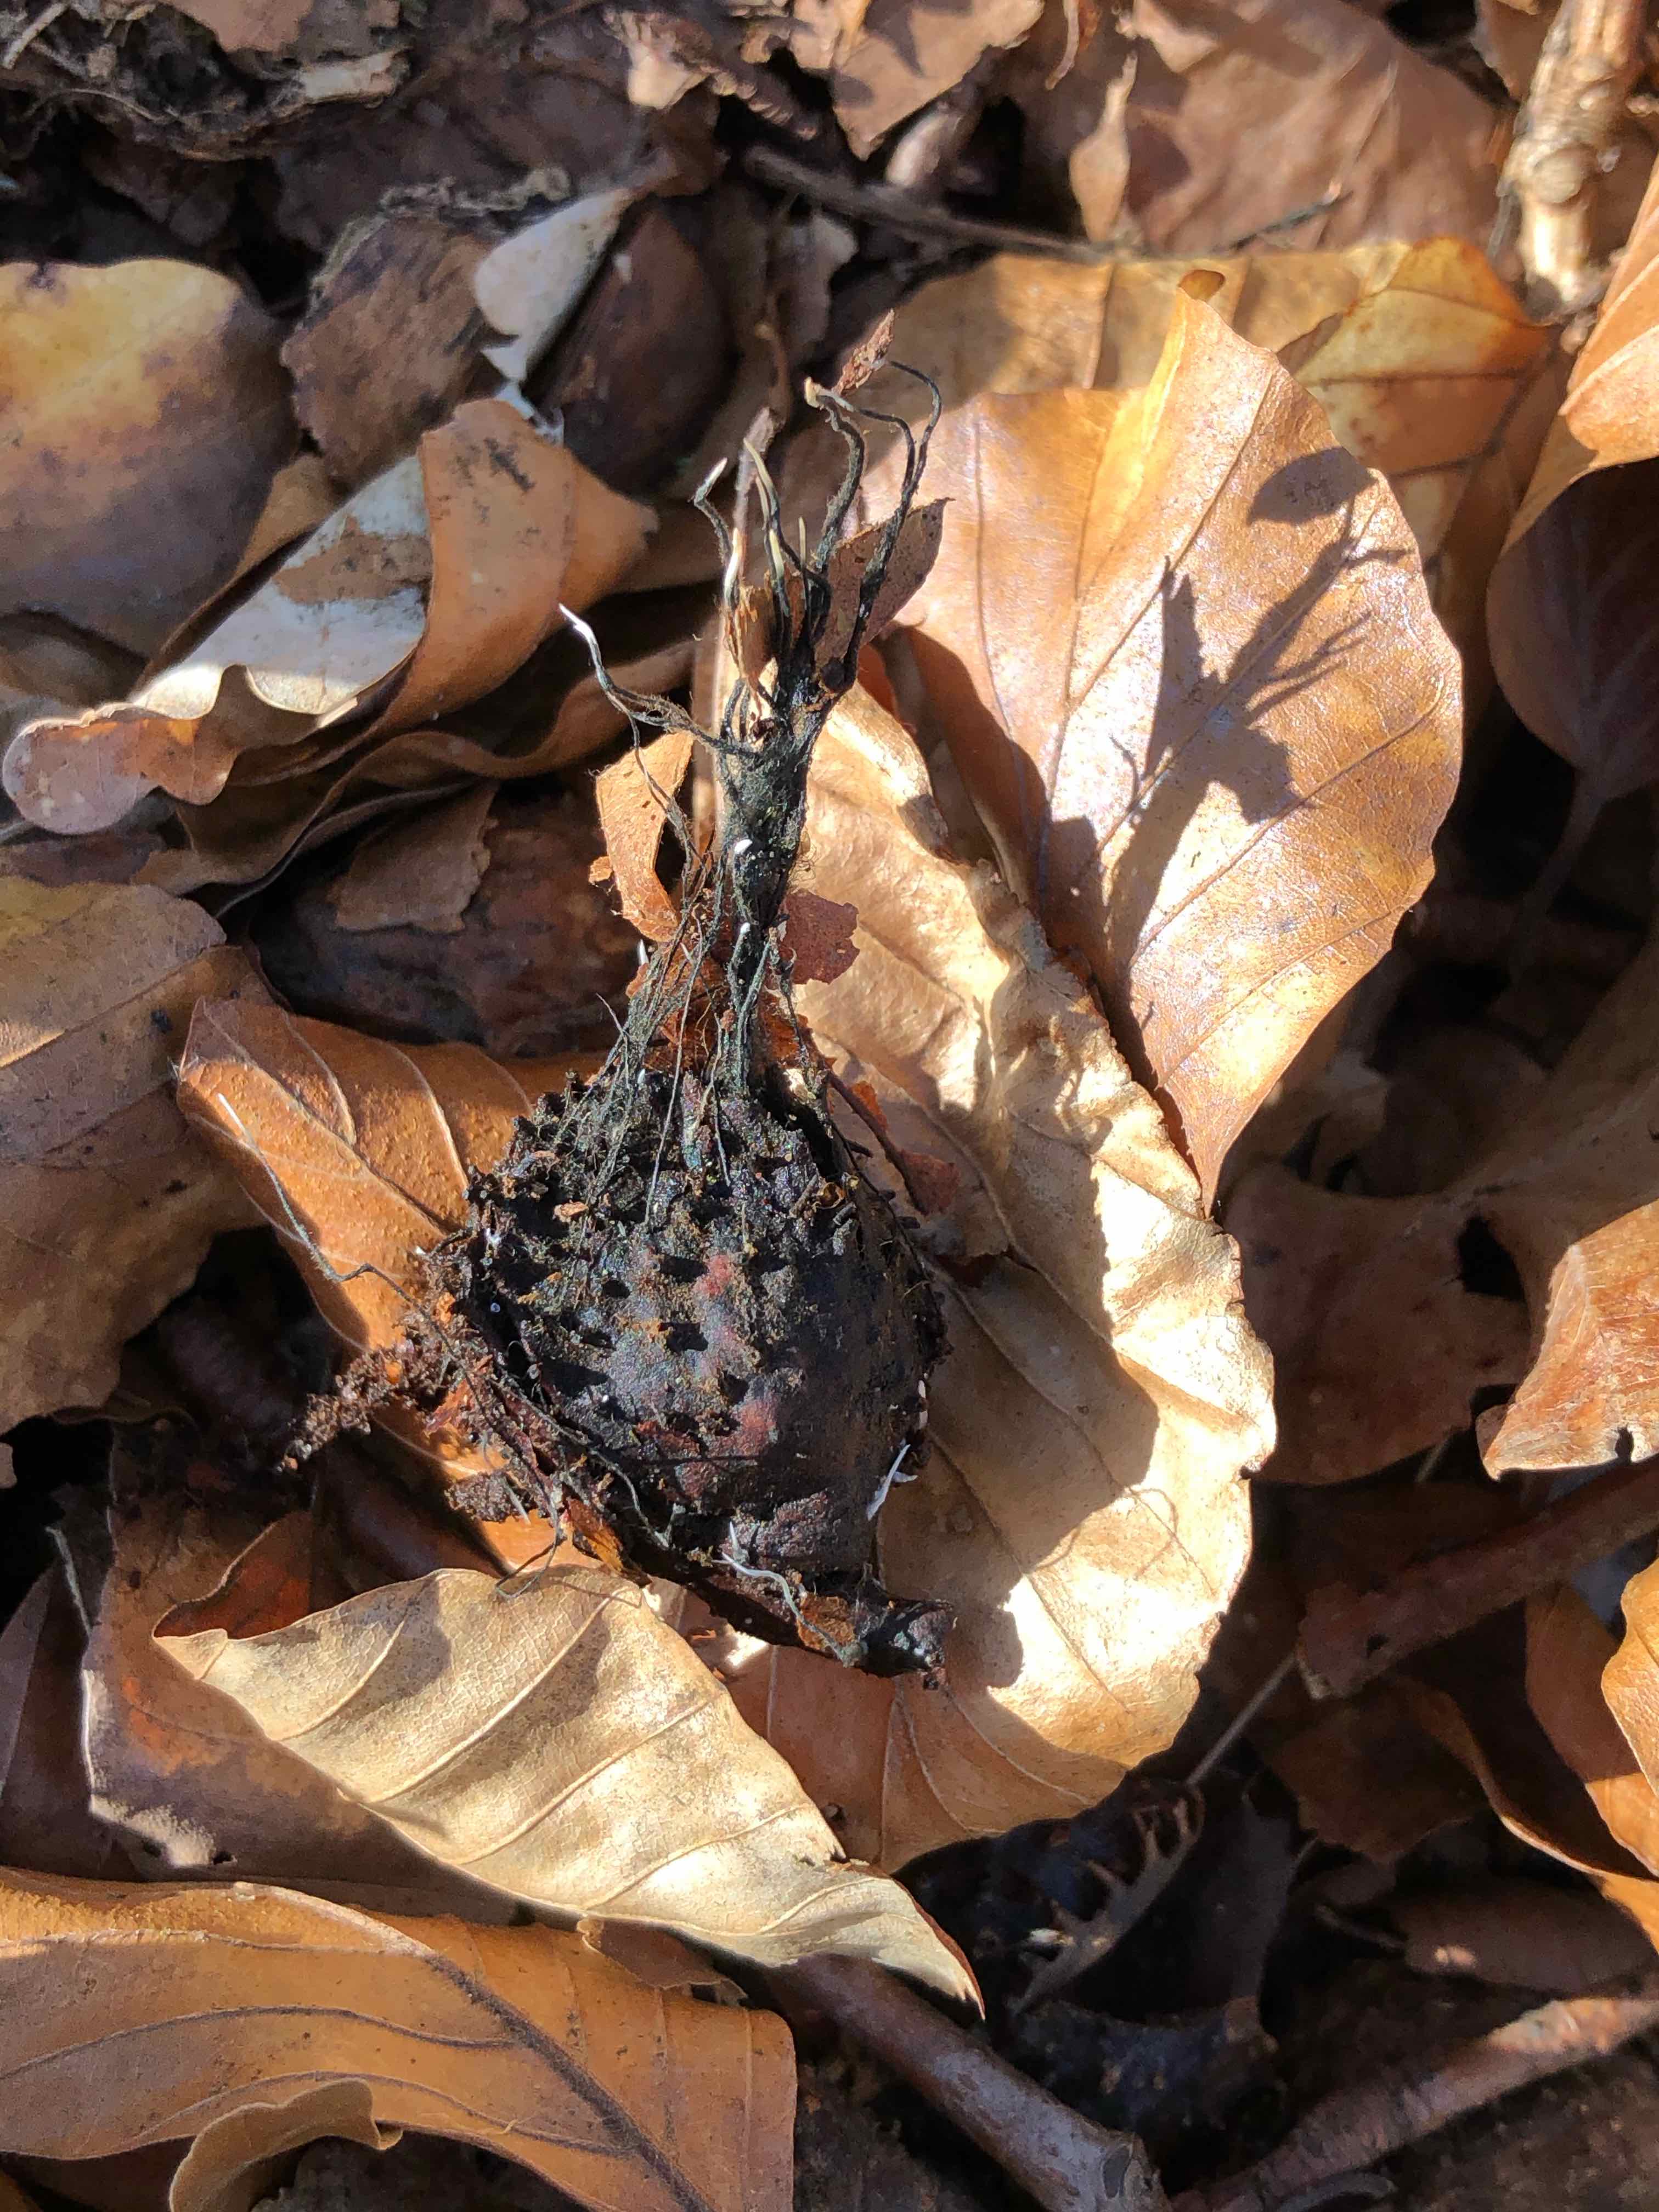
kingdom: Fungi
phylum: Ascomycota
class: Sordariomycetes
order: Xylariales
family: Xylariaceae
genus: Xylaria
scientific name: Xylaria carpophila
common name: bogskål-stødsvamp
